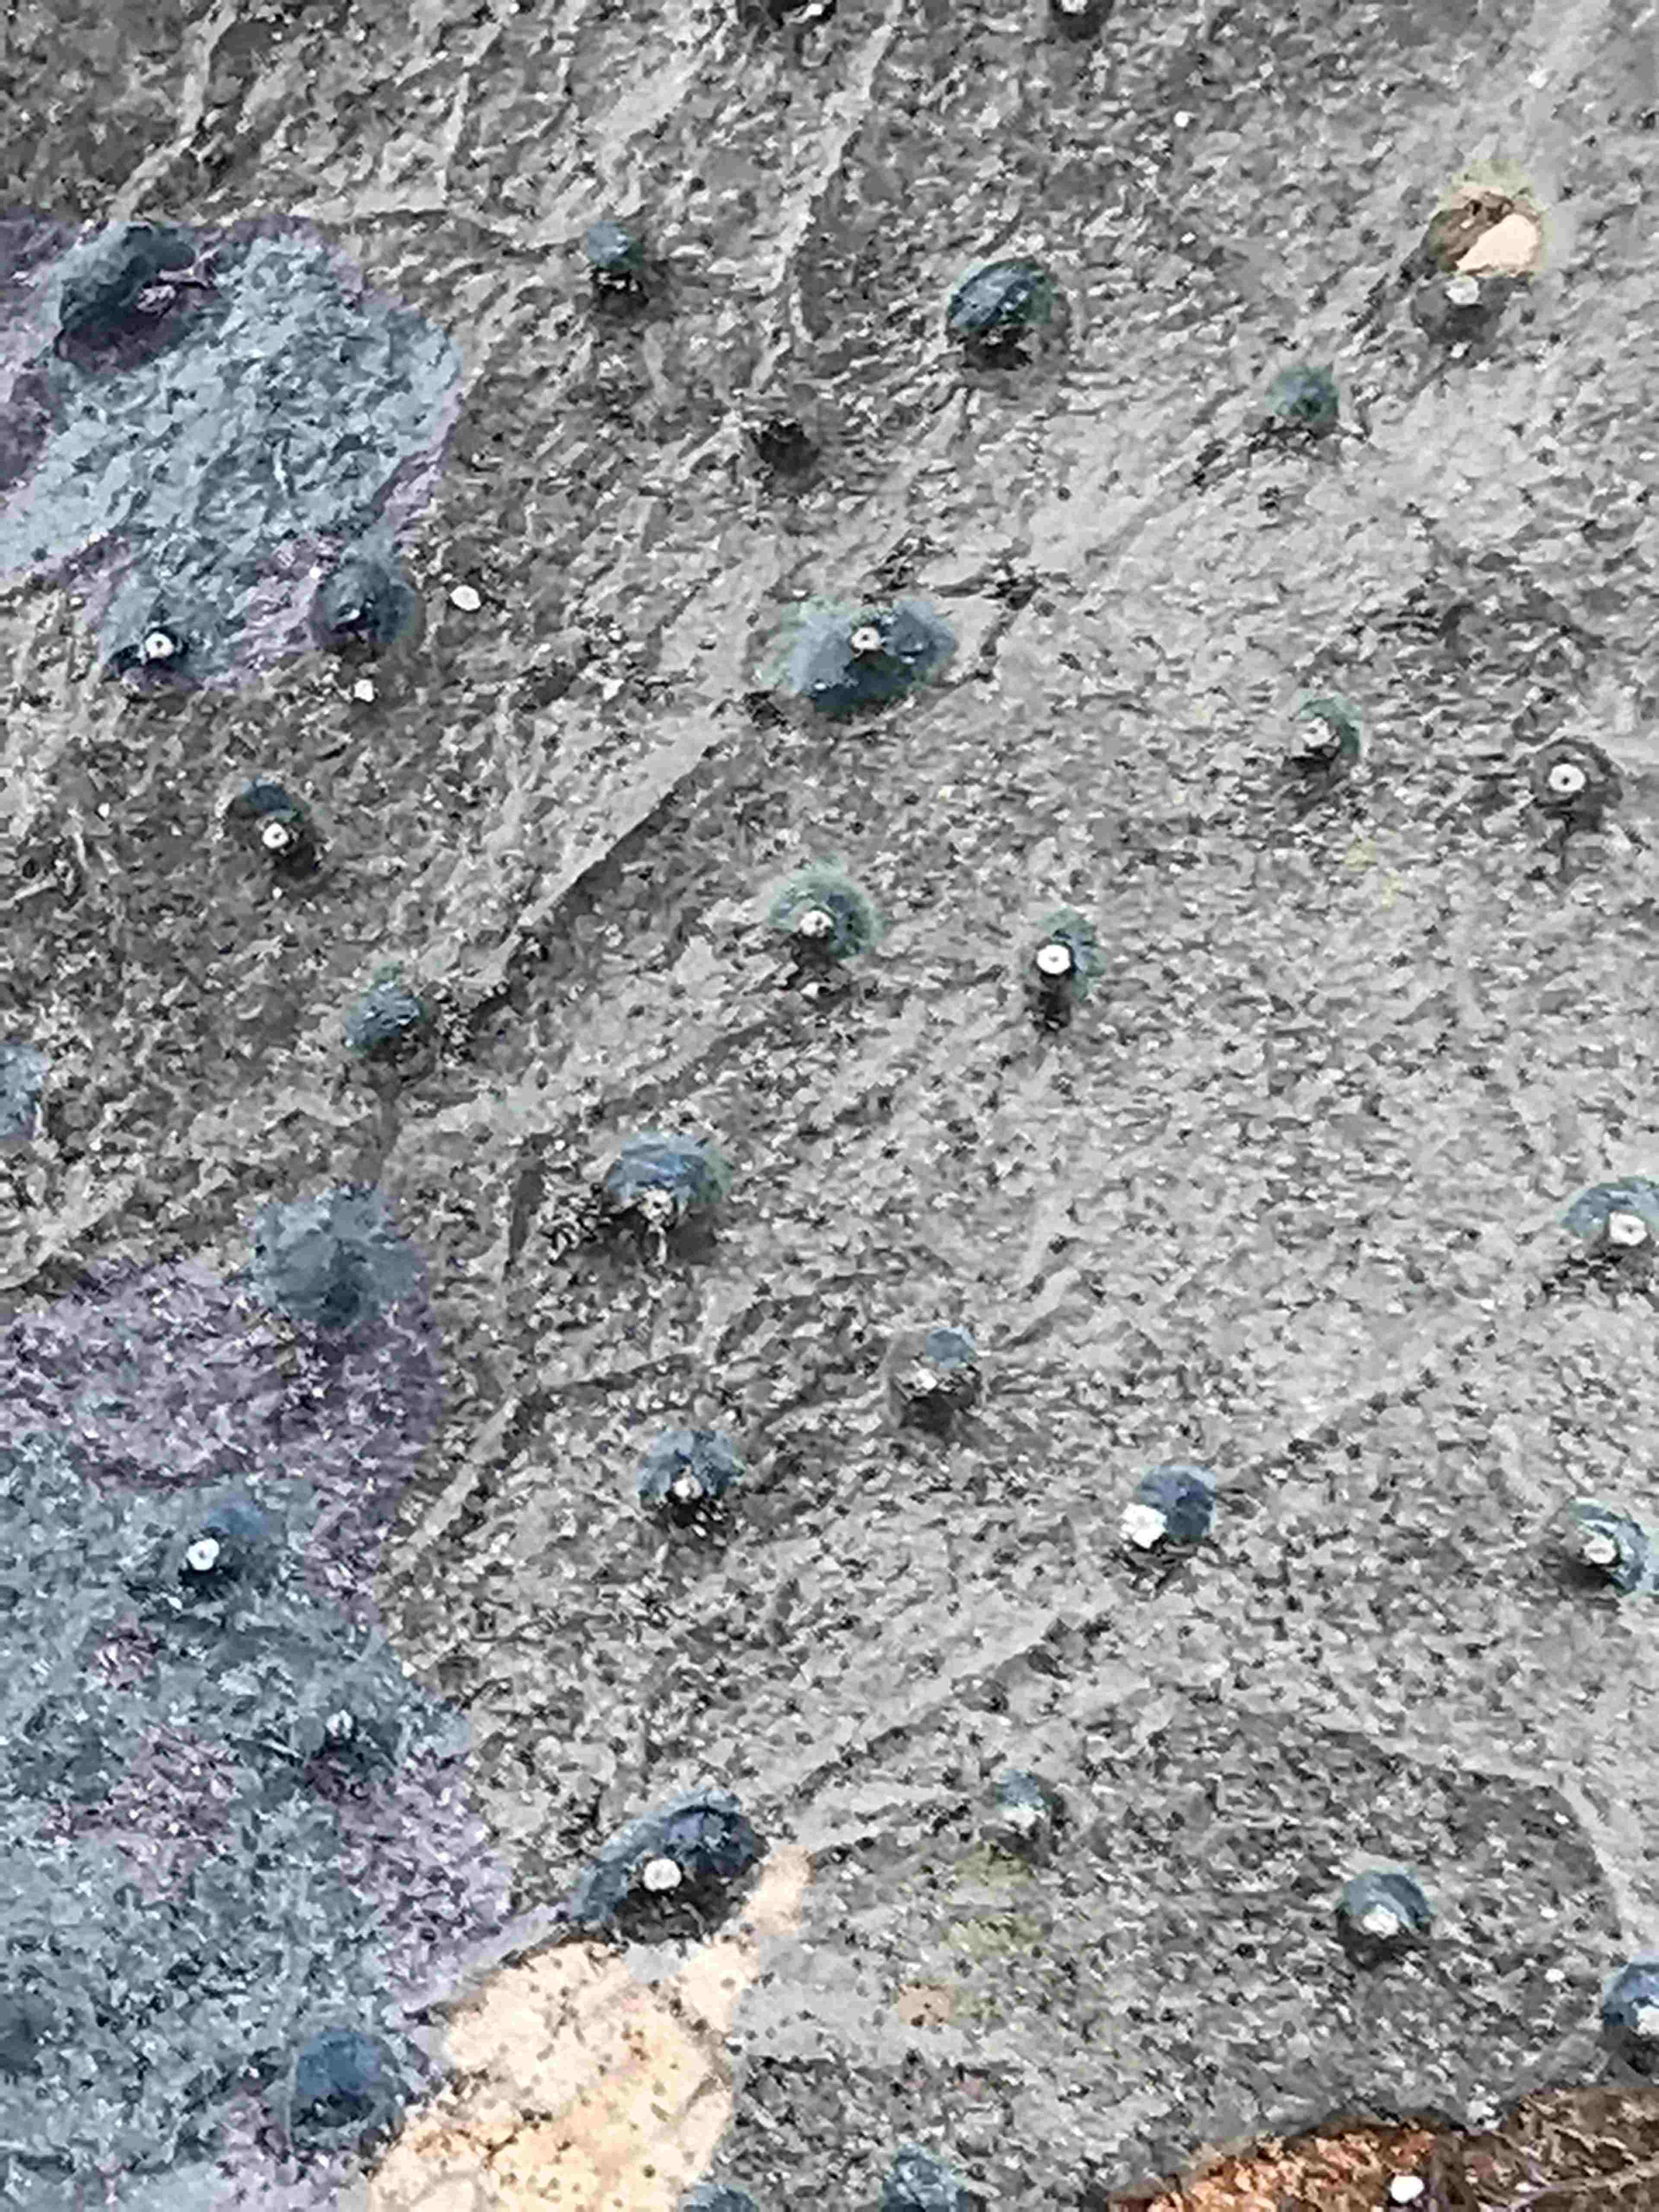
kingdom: Fungi
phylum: Ascomycota
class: Leotiomycetes
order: Phacidiales
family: Phacidiaceae
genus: Phacidium
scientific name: Phacidium lauri
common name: kristtorn-tandskive
